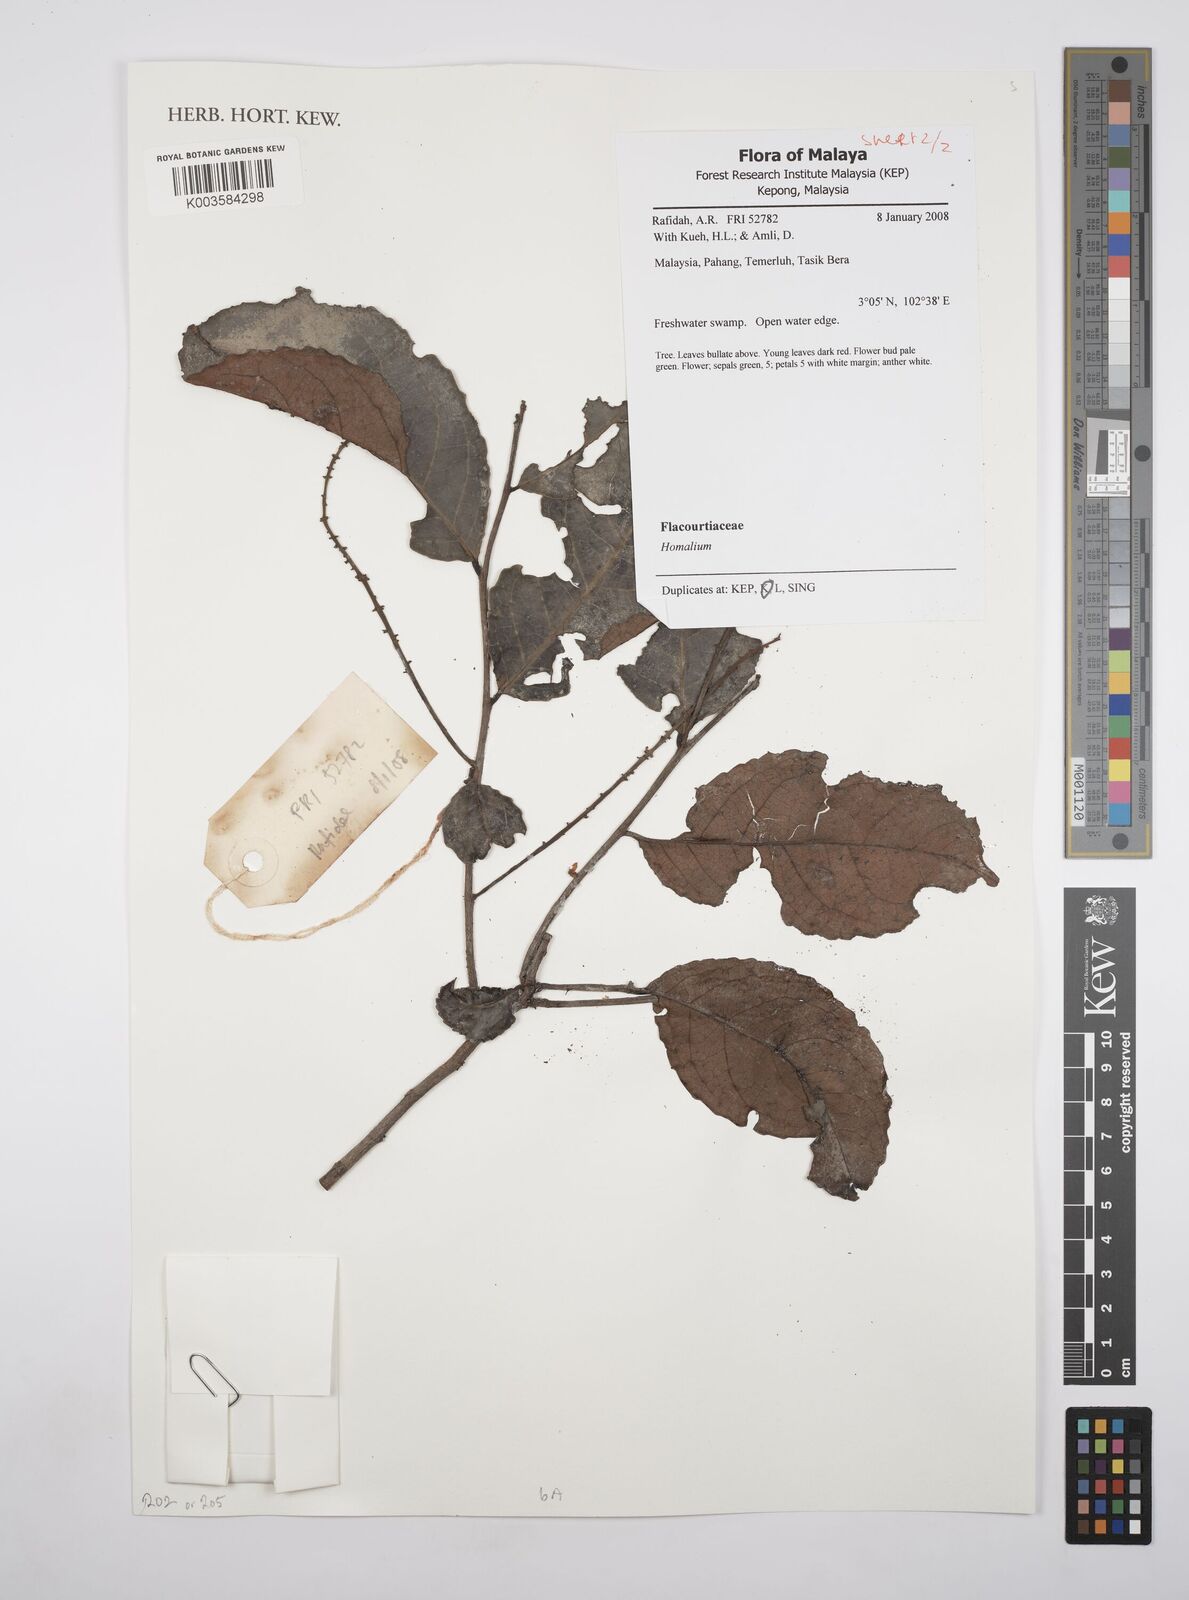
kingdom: Plantae
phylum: Tracheophyta
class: Magnoliopsida
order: Malpighiales
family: Salicaceae
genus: Homalium
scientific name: Homalium
